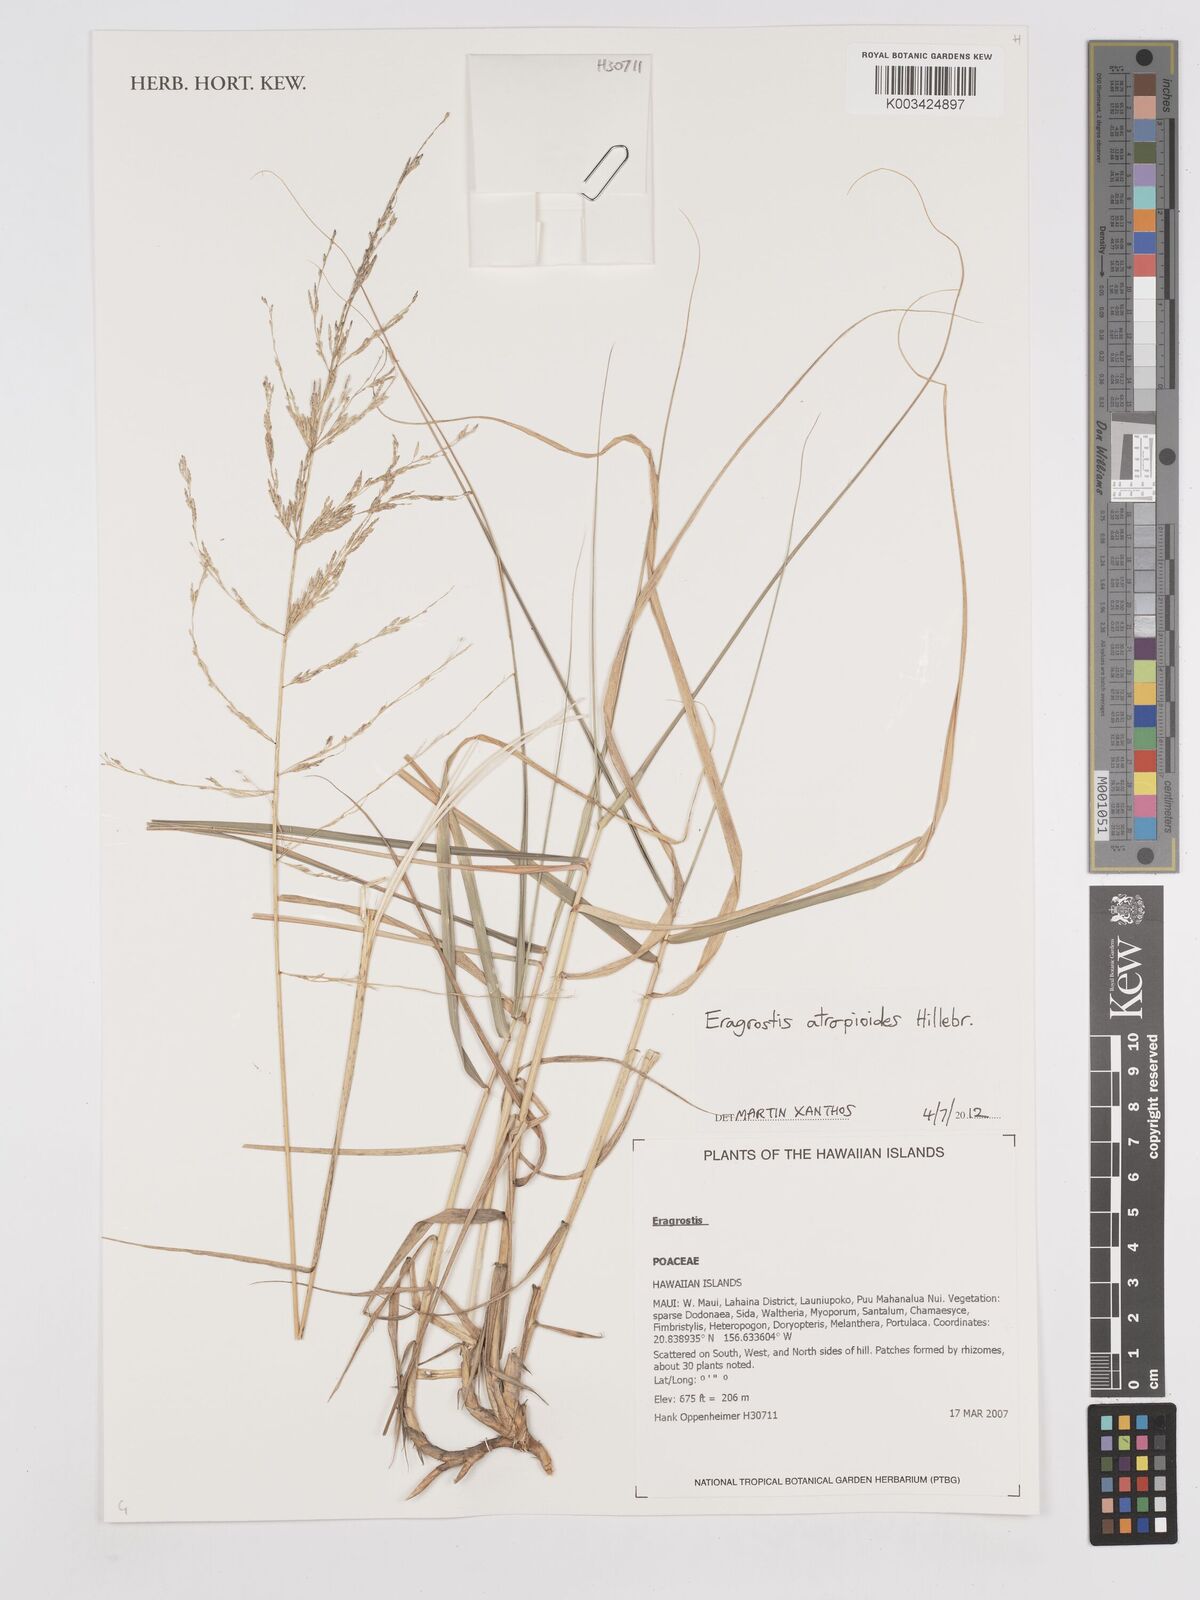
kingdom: Plantae
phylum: Tracheophyta
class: Liliopsida
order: Poales
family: Poaceae
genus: Eragrostis
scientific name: Eragrostis atropioides
